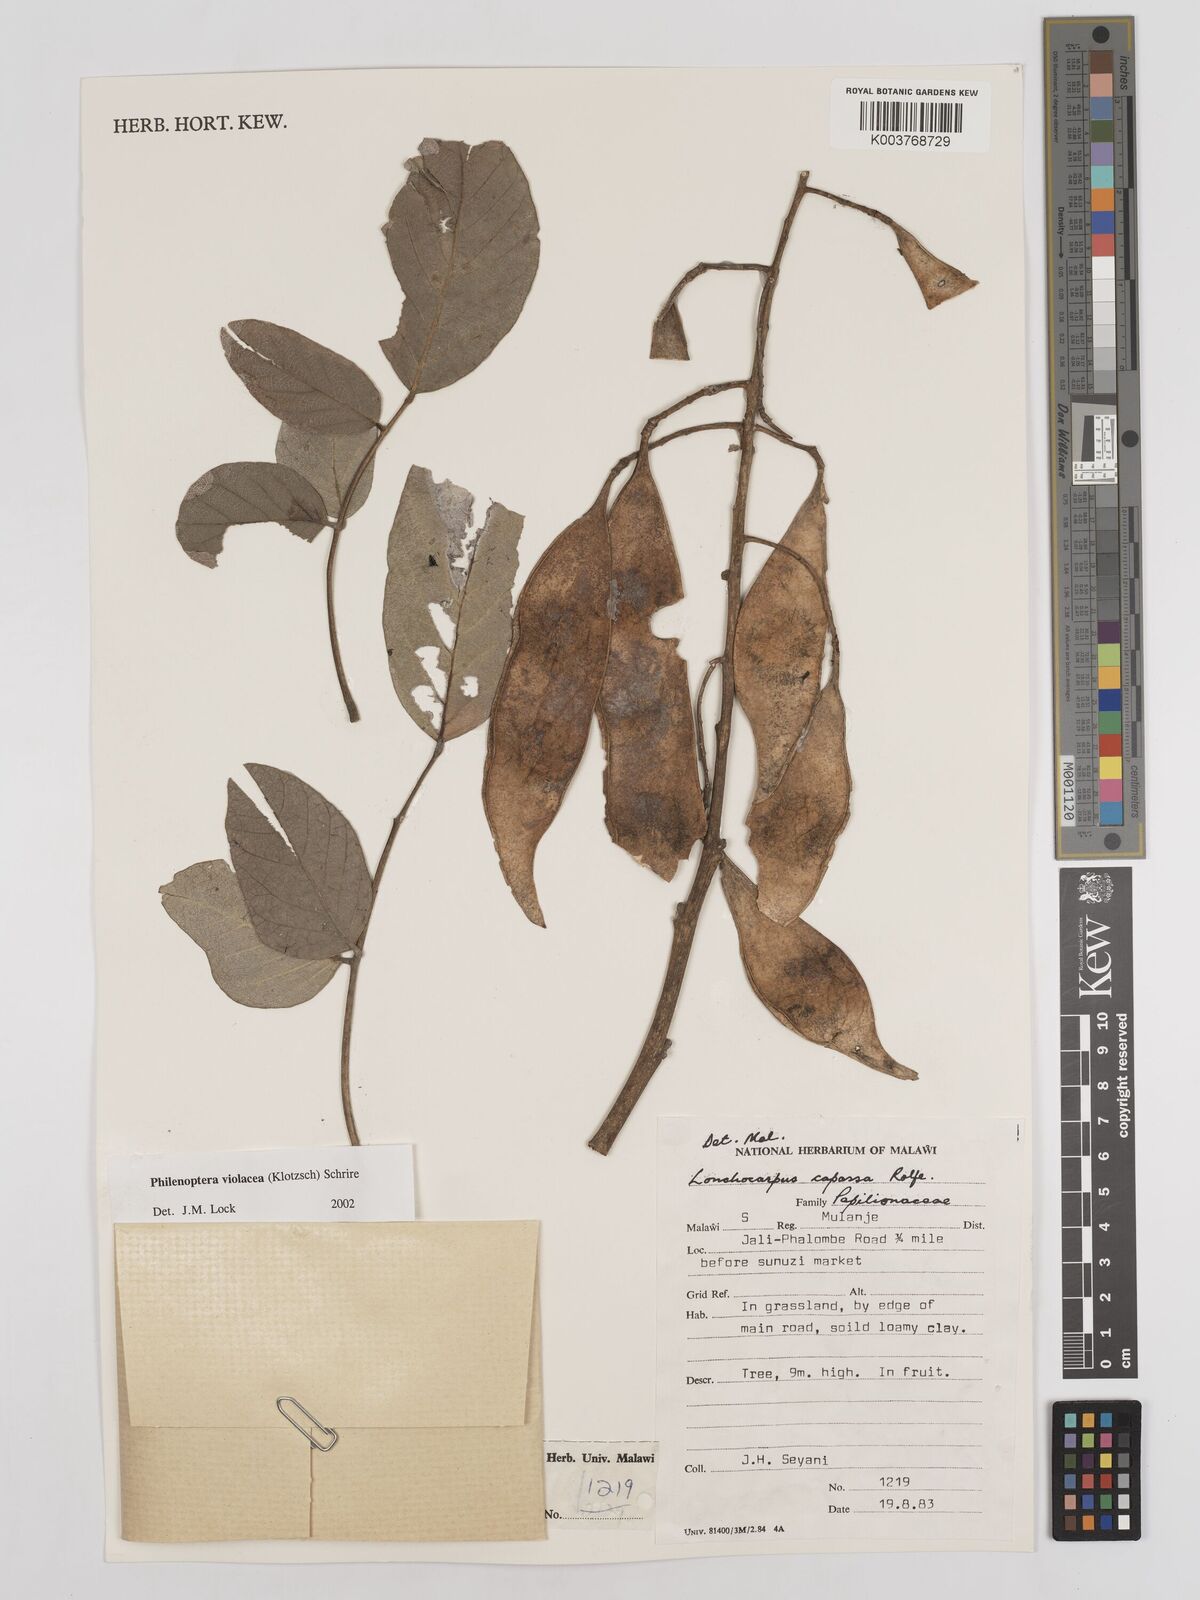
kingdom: Plantae
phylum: Tracheophyta
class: Magnoliopsida
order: Fabales
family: Fabaceae
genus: Philenoptera
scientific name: Philenoptera violacea
